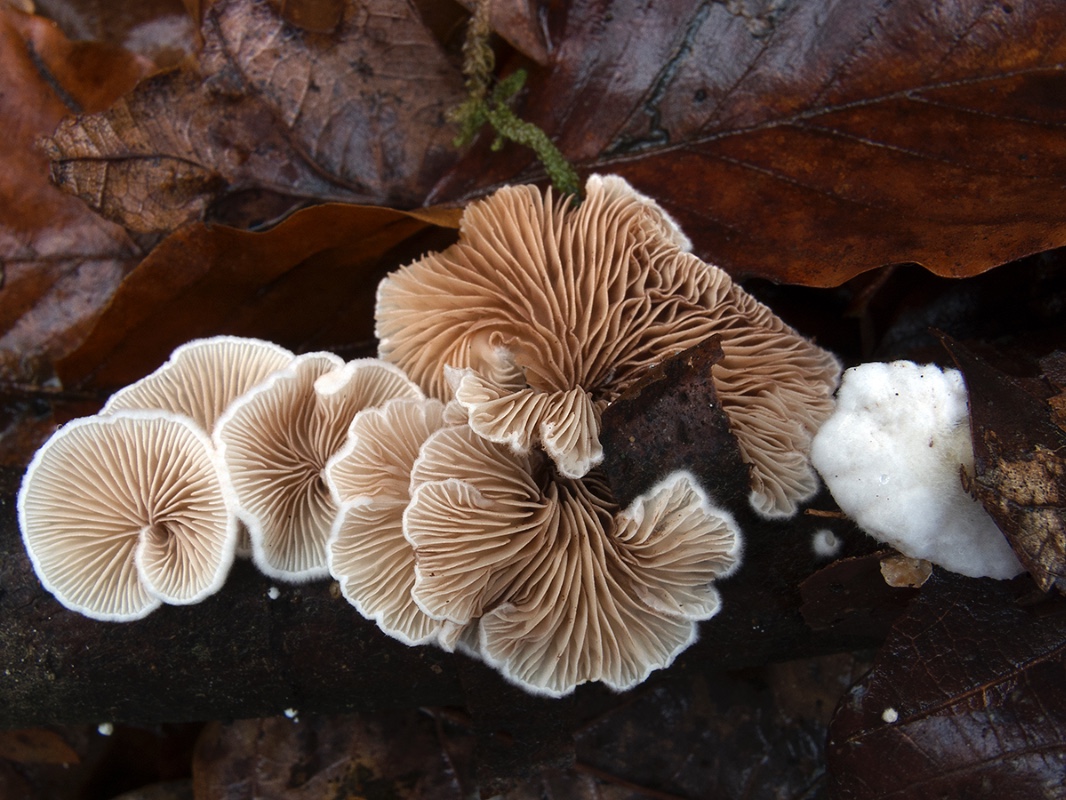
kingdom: Fungi
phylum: Basidiomycota
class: Agaricomycetes
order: Agaricales
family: Crepidotaceae
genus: Crepidotus
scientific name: Crepidotus variabilis
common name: forskelligformet muslingesvamp
